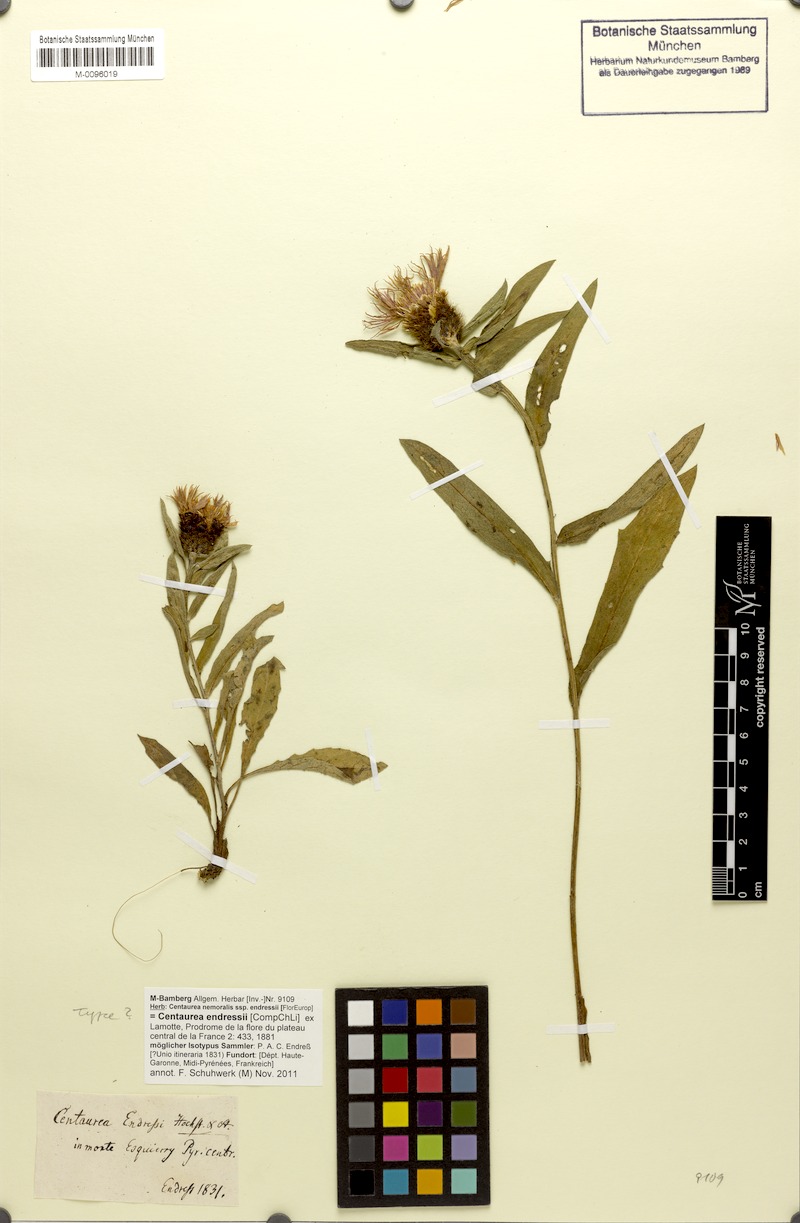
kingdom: Plantae
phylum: Tracheophyta
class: Magnoliopsida
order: Asterales
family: Asteraceae
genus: Centaurea
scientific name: Centaurea decipiens
